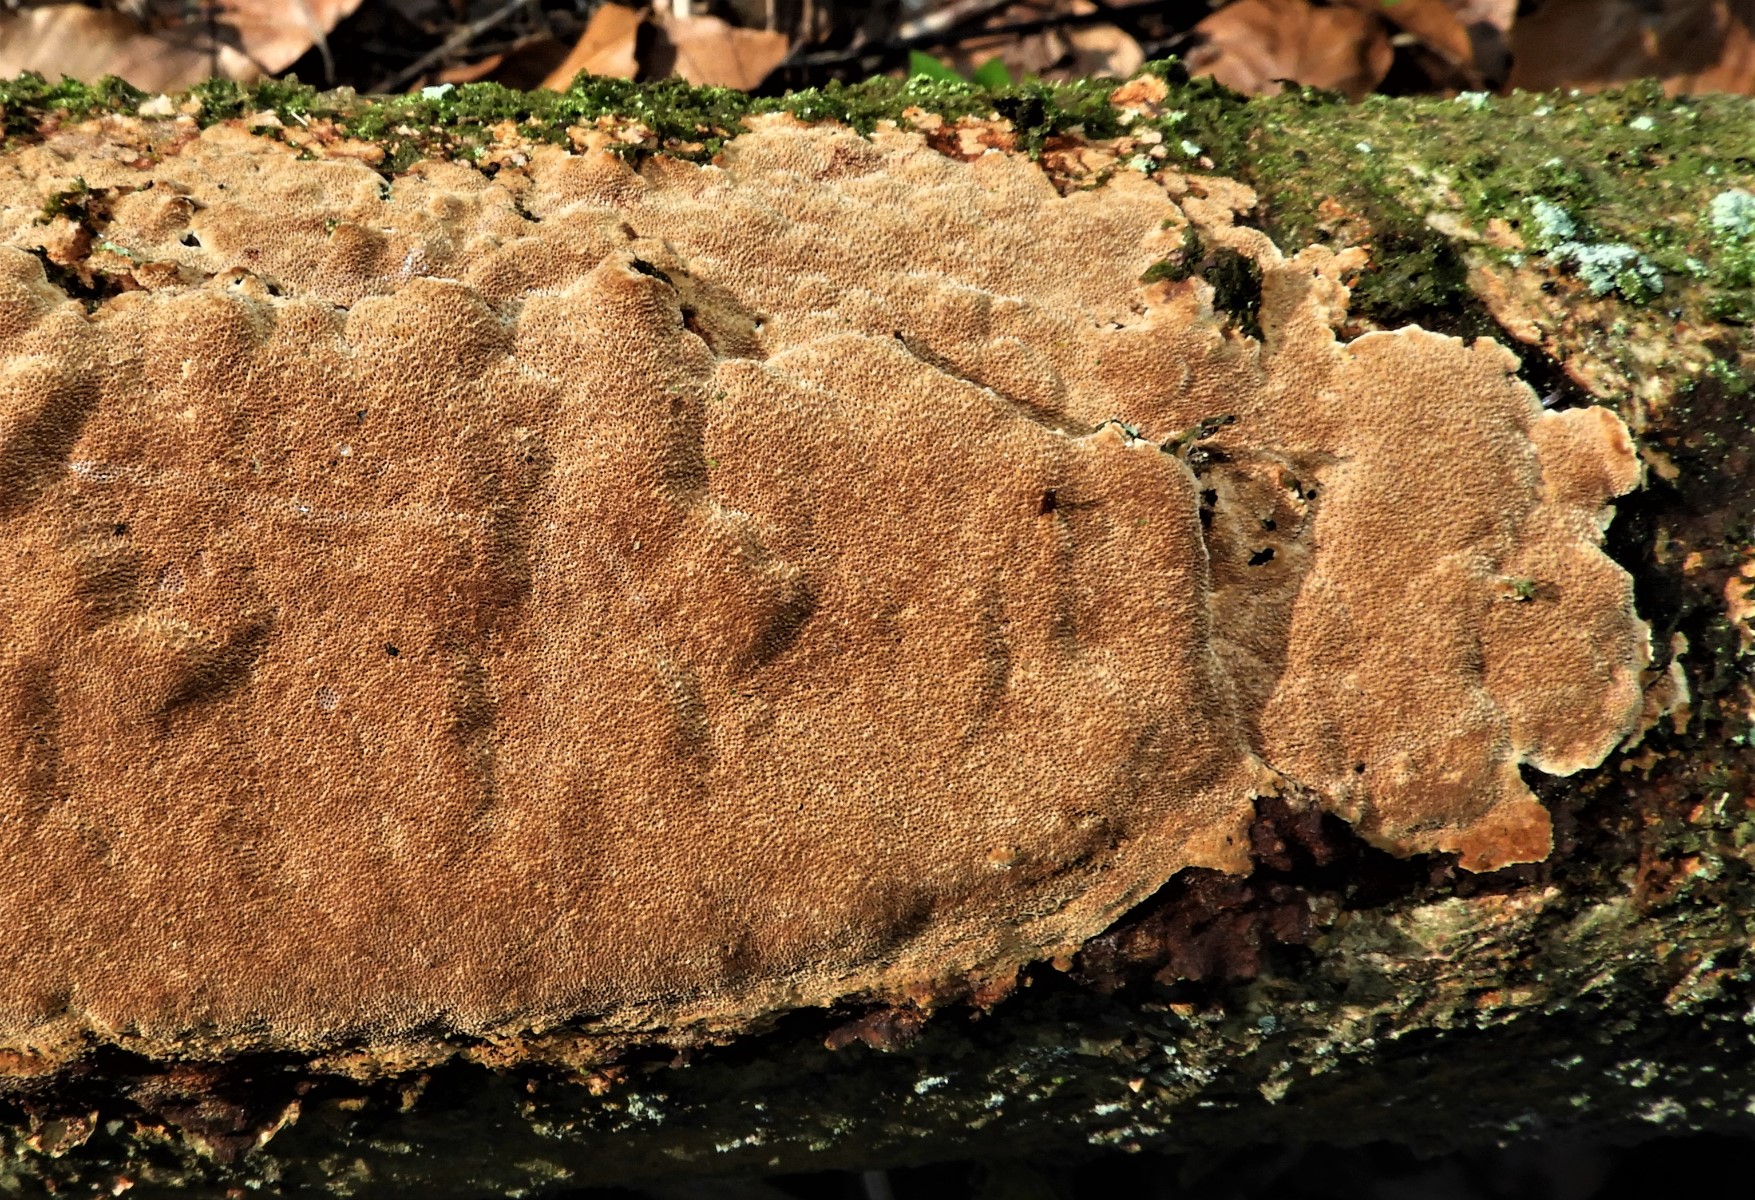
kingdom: Fungi
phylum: Basidiomycota
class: Agaricomycetes
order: Hymenochaetales
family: Hymenochaetaceae
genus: Fuscoporia
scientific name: Fuscoporia ferrea
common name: skorpe-ildporesvamp
